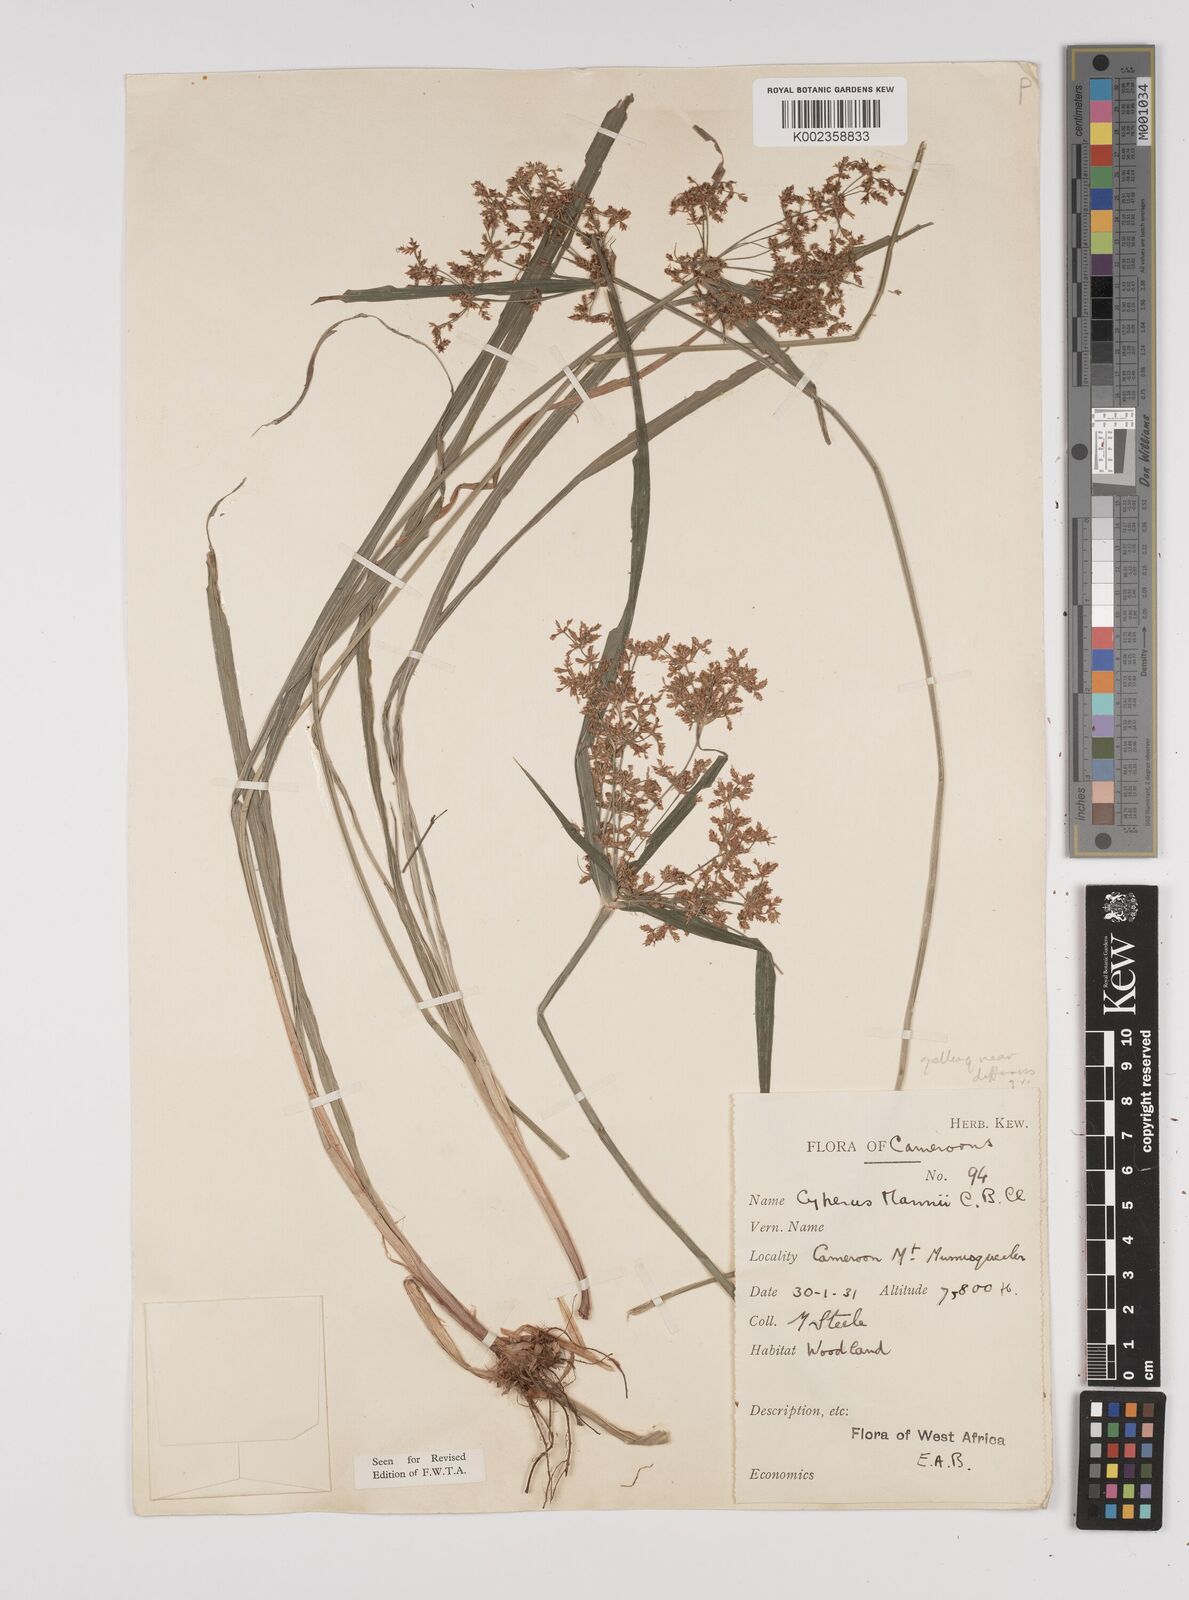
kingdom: Plantae
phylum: Tracheophyta
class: Liliopsida
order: Poales
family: Cyperaceae
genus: Cyperus
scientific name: Cyperus baronii
